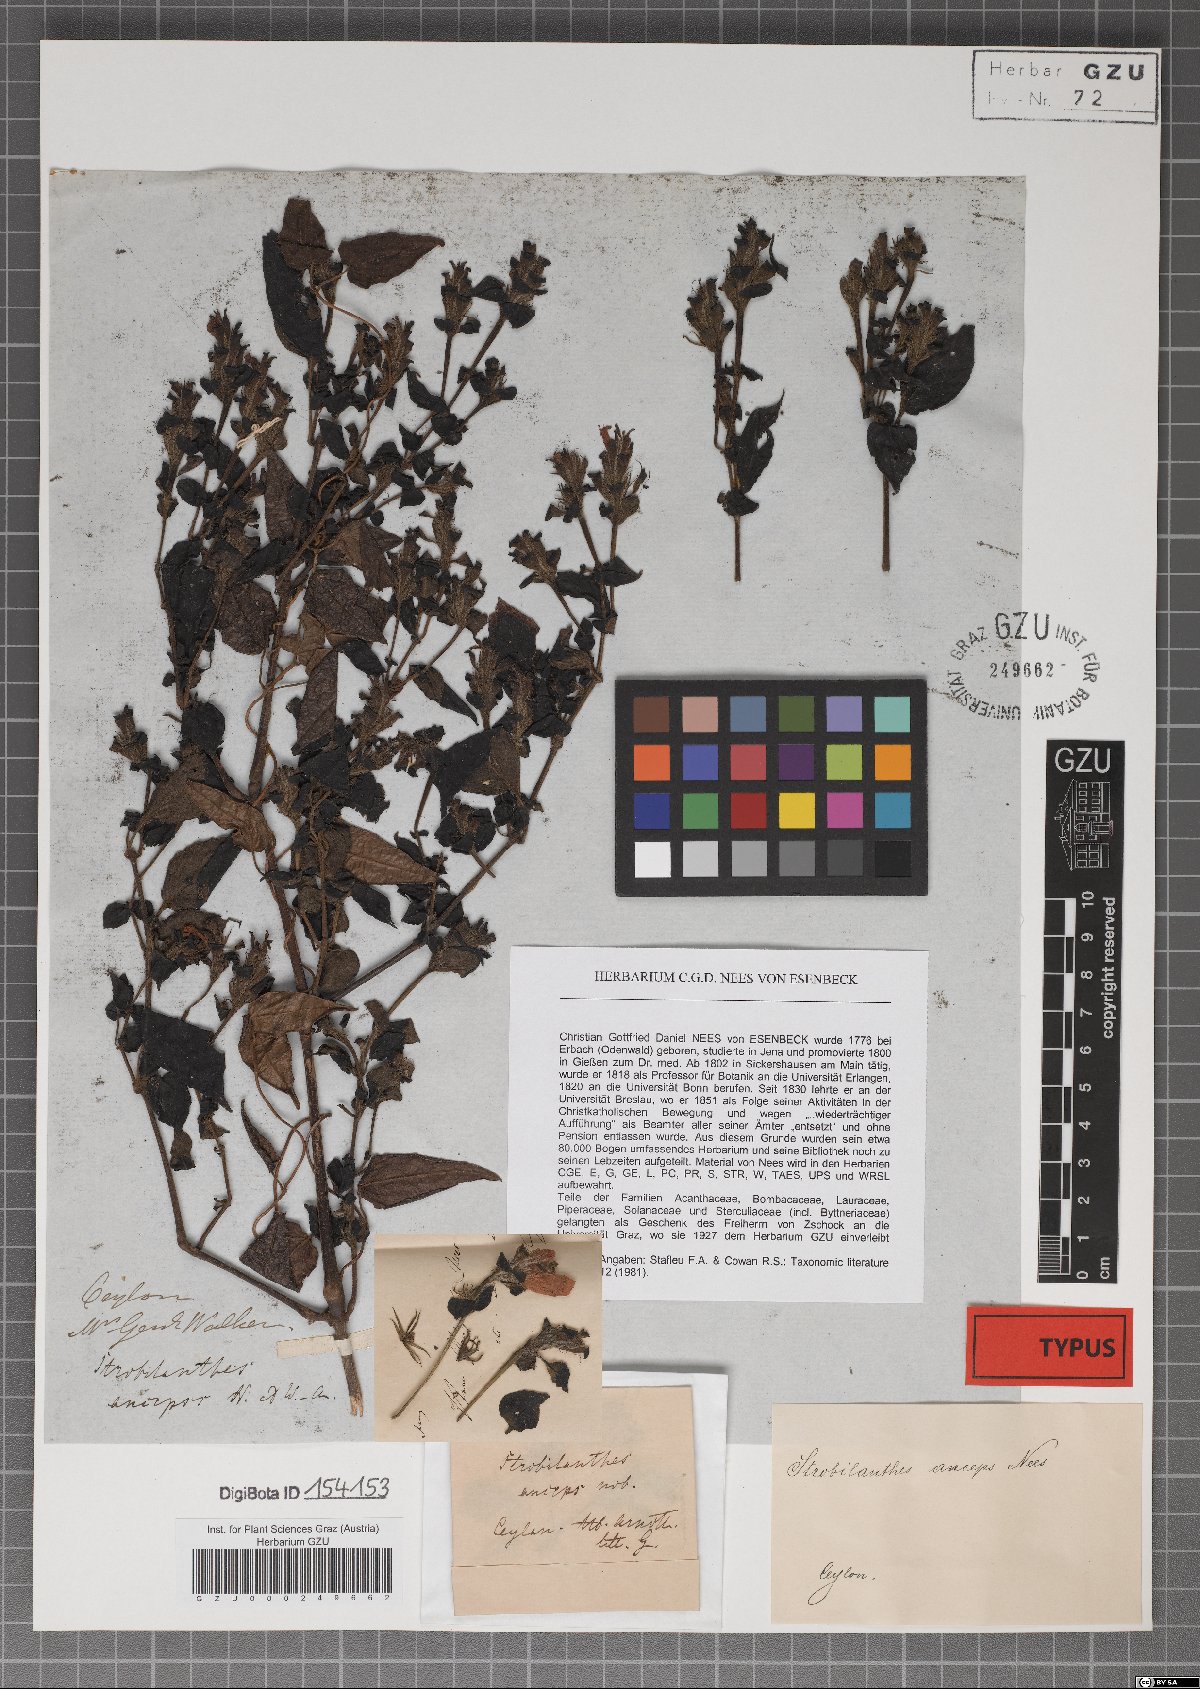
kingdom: Plantae
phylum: Tracheophyta
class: Magnoliopsida
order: Lamiales
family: Acanthaceae
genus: Strobilanthes
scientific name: Strobilanthes anceps
